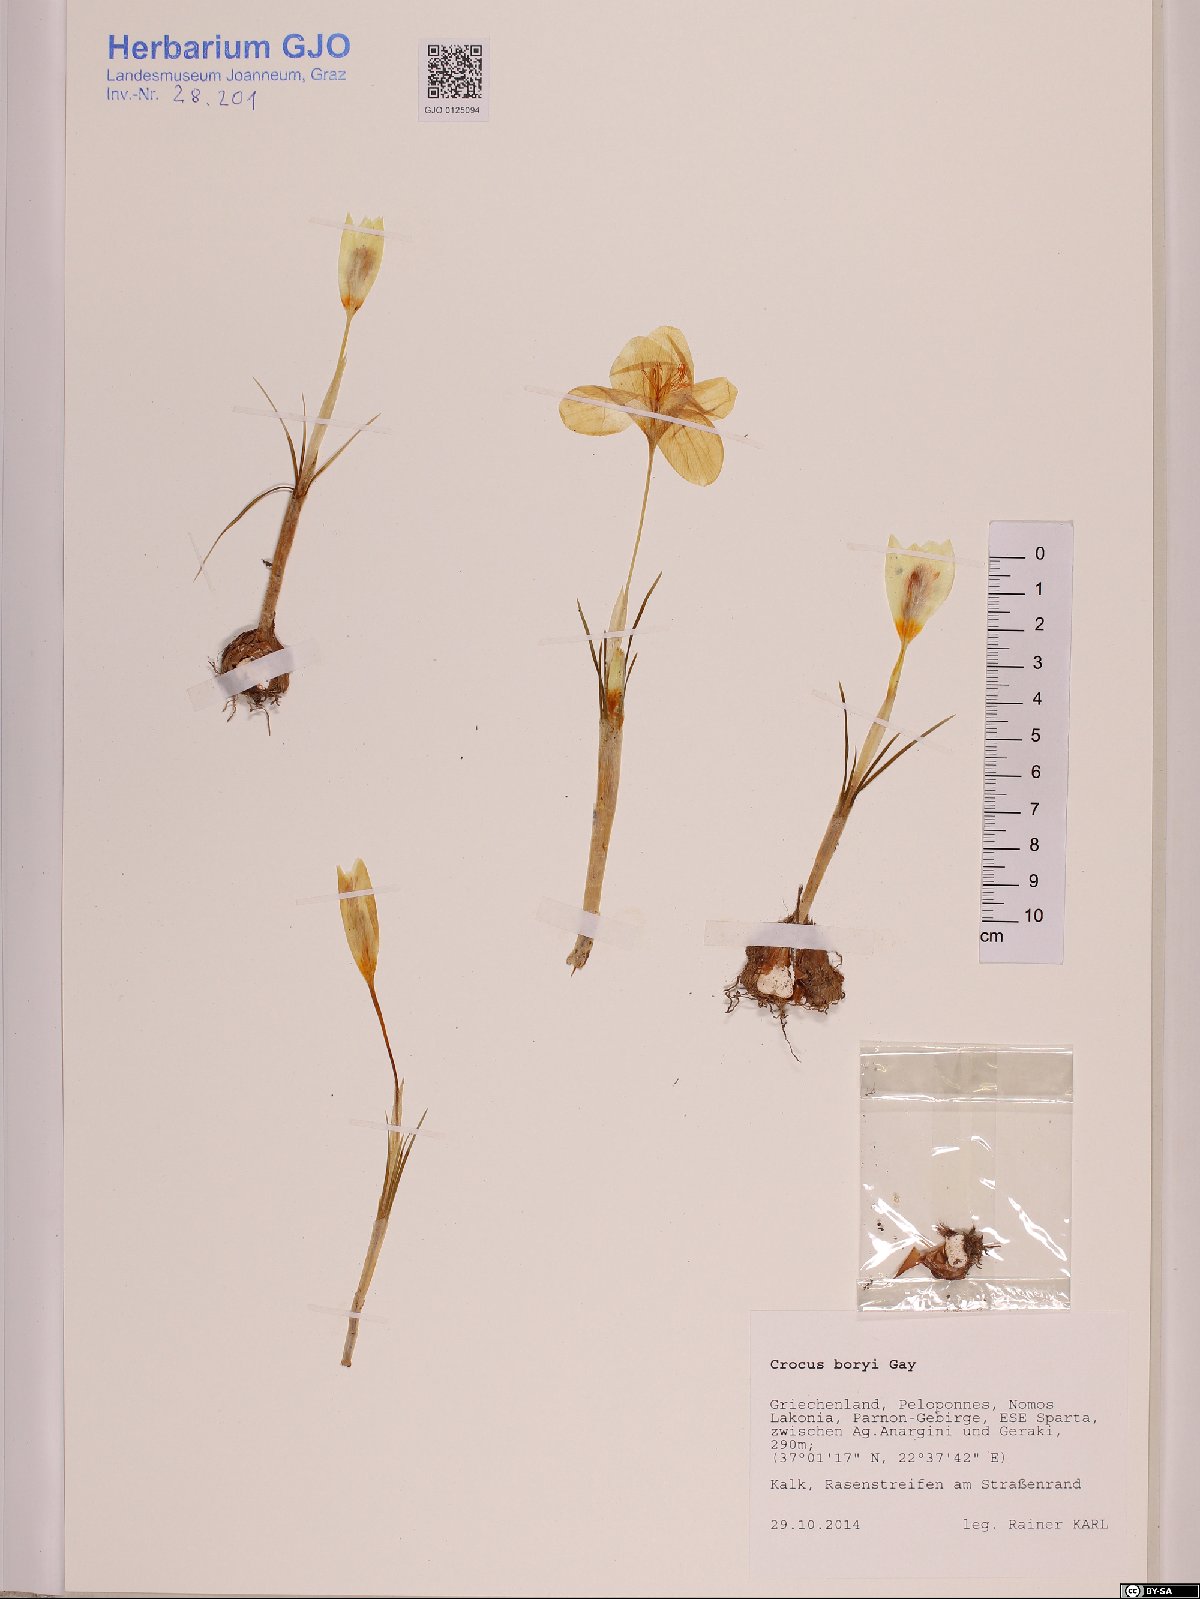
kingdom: Plantae
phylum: Tracheophyta
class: Liliopsida
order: Asparagales
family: Iridaceae
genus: Crocus
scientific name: Crocus boryi
